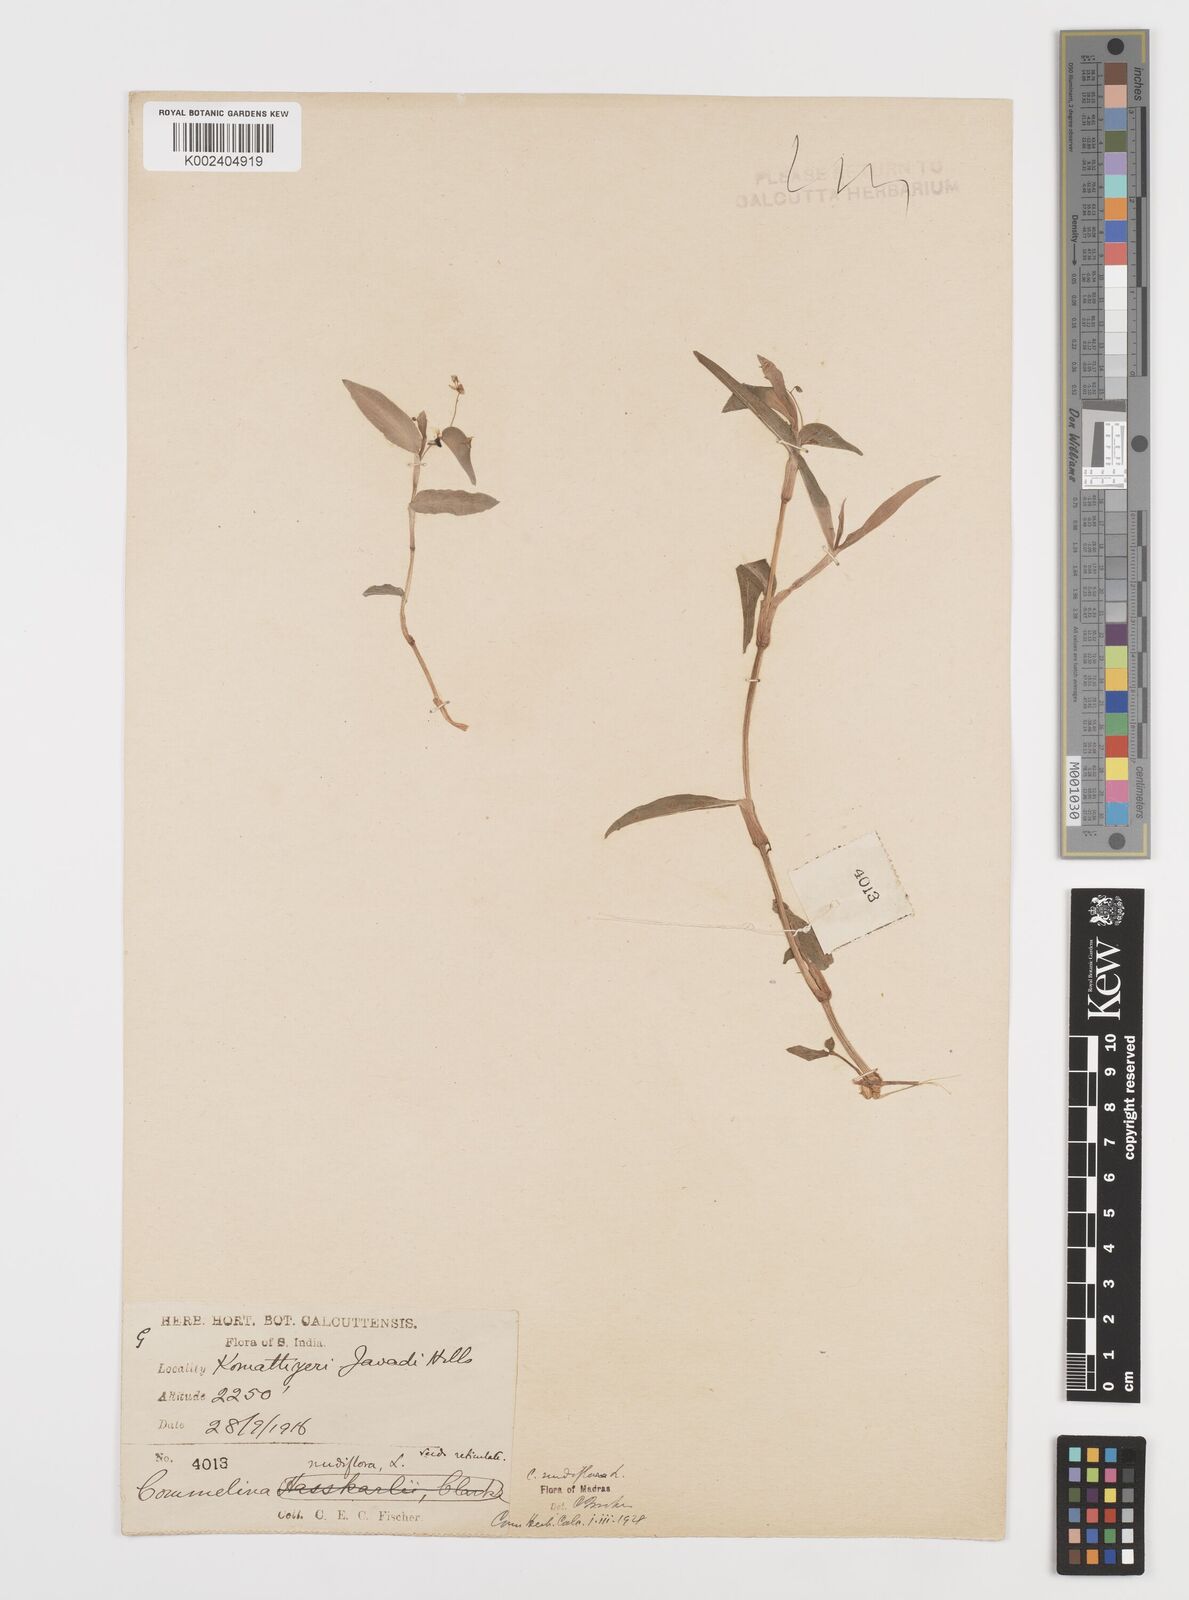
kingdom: Plantae
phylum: Tracheophyta
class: Liliopsida
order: Commelinales
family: Commelinaceae
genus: Commelina
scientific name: Commelina diffusa
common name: Climbing dayflower
